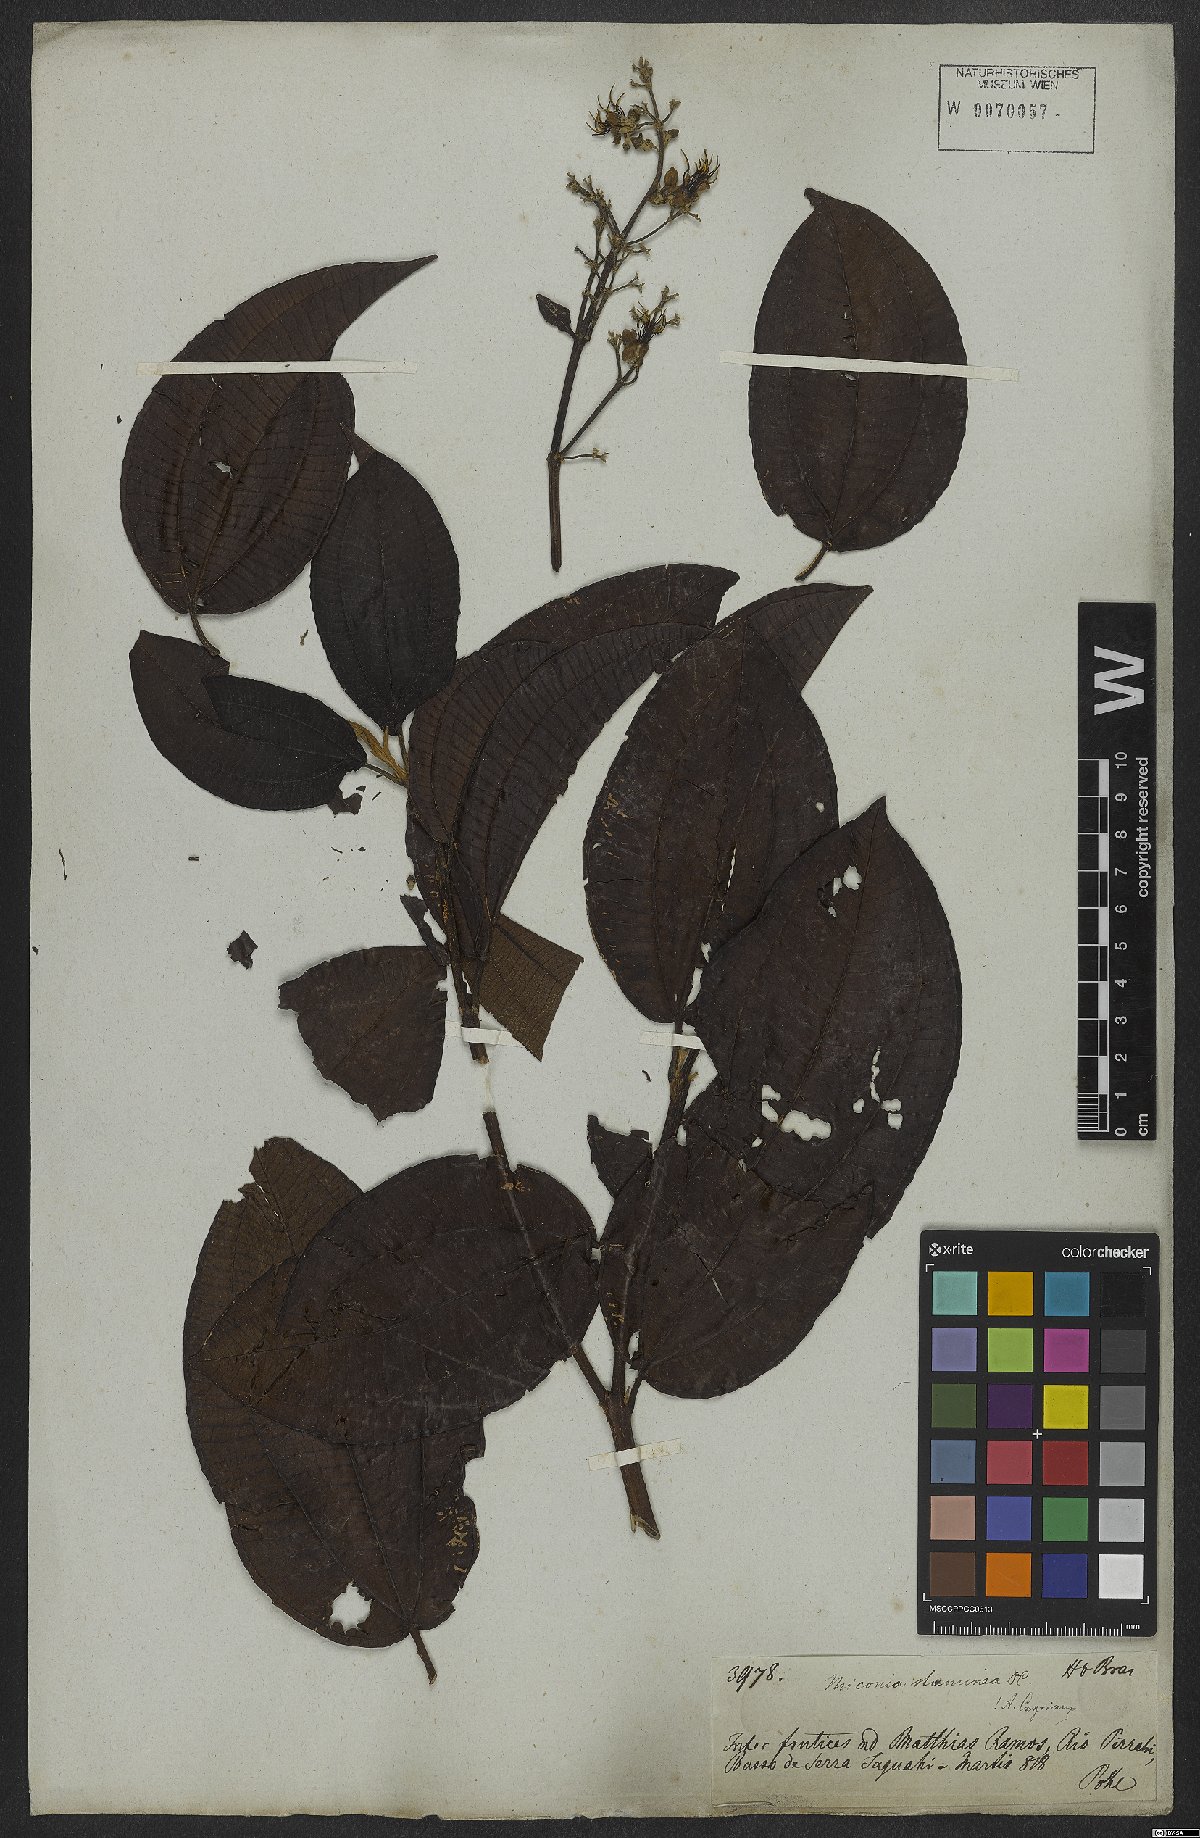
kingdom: Plantae
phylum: Tracheophyta
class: Magnoliopsida
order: Myrtales
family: Melastomataceae
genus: Miconia
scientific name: Miconia staminea
